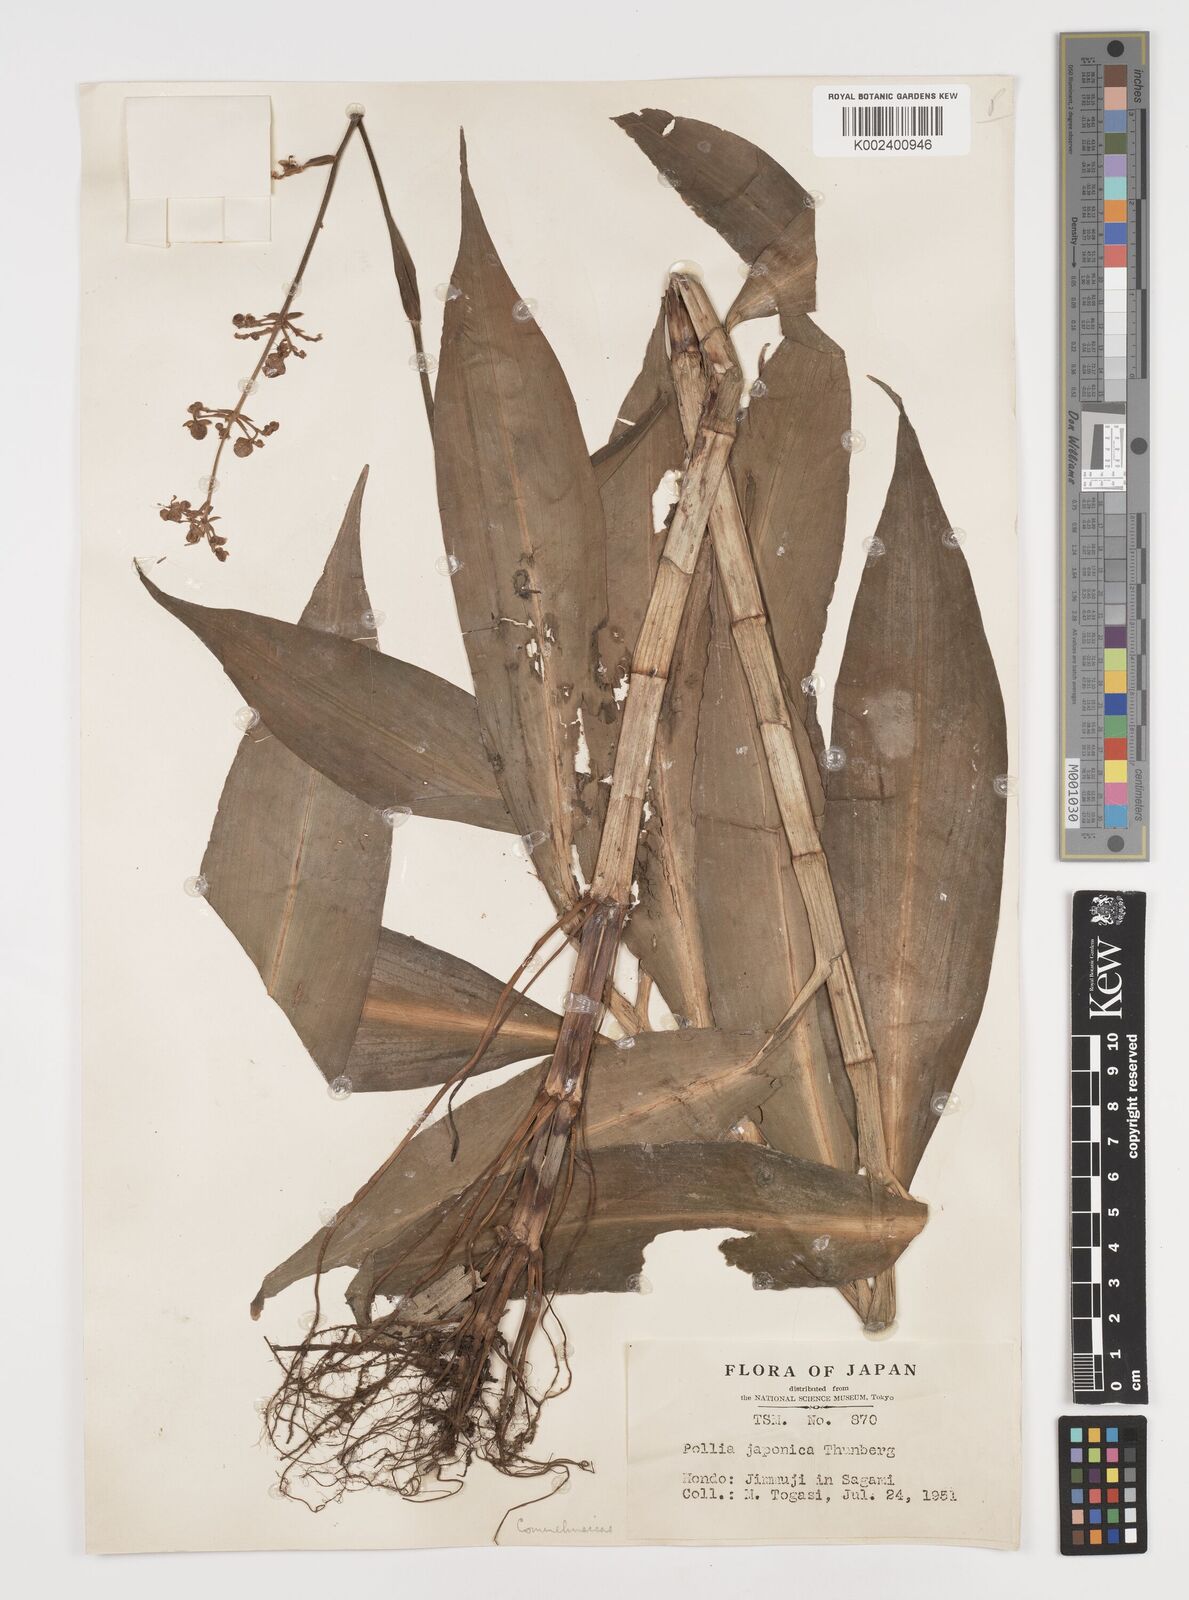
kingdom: Plantae
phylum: Tracheophyta
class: Liliopsida
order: Commelinales
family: Commelinaceae
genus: Pollia
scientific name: Pollia japonica
